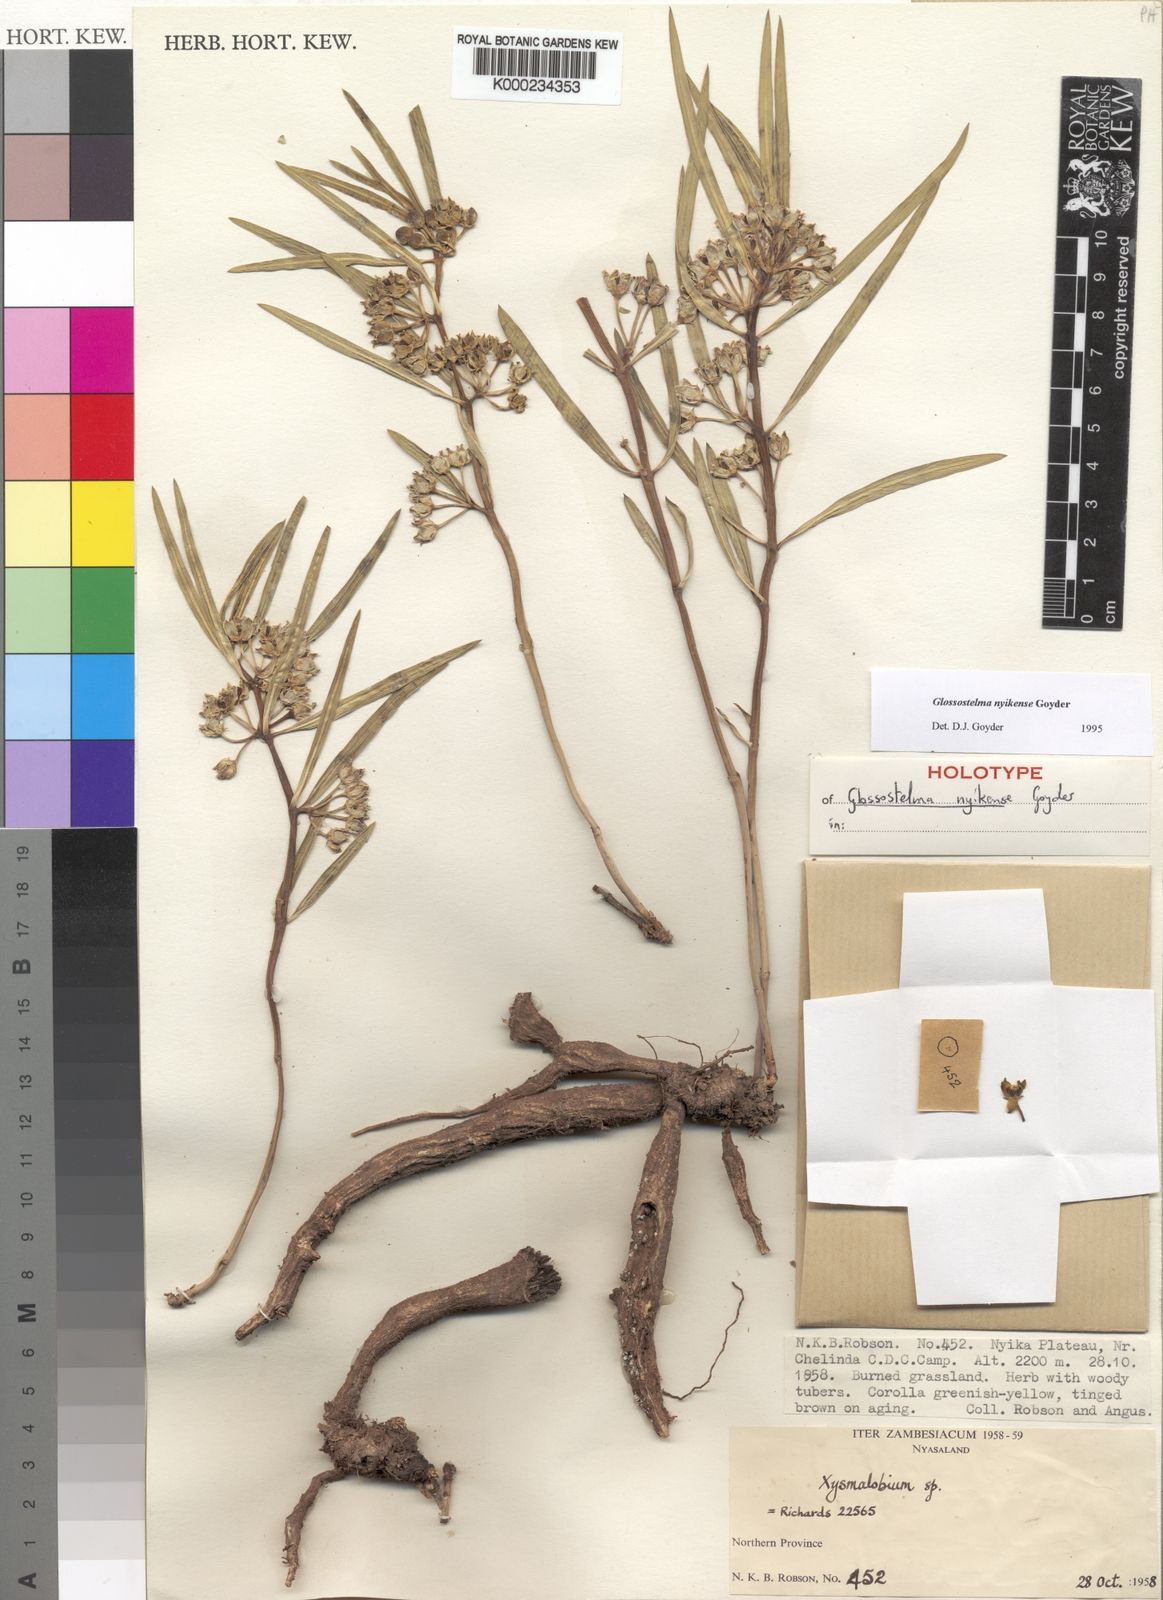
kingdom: Plantae
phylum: Tracheophyta
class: Magnoliopsida
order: Gentianales
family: Apocynaceae
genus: Glossostelma
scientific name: Glossostelma nyikense
